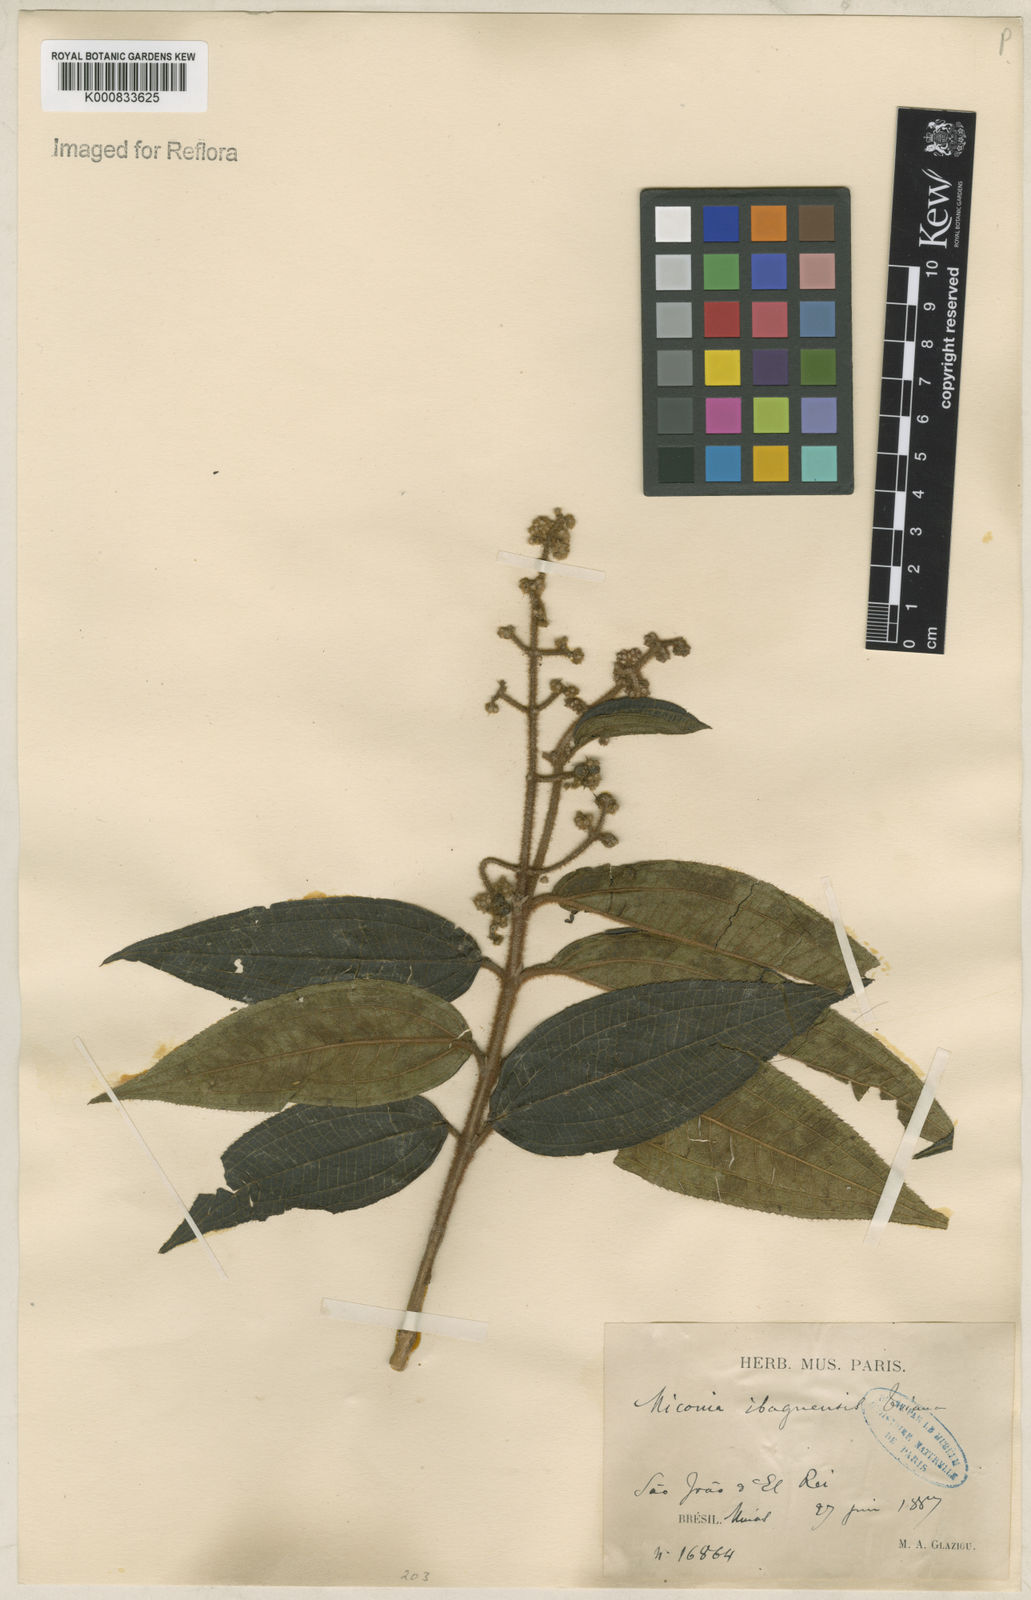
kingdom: Plantae
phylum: Tracheophyta
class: Magnoliopsida
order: Myrtales
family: Melastomataceae
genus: Miconia
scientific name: Miconia ibaguensis
